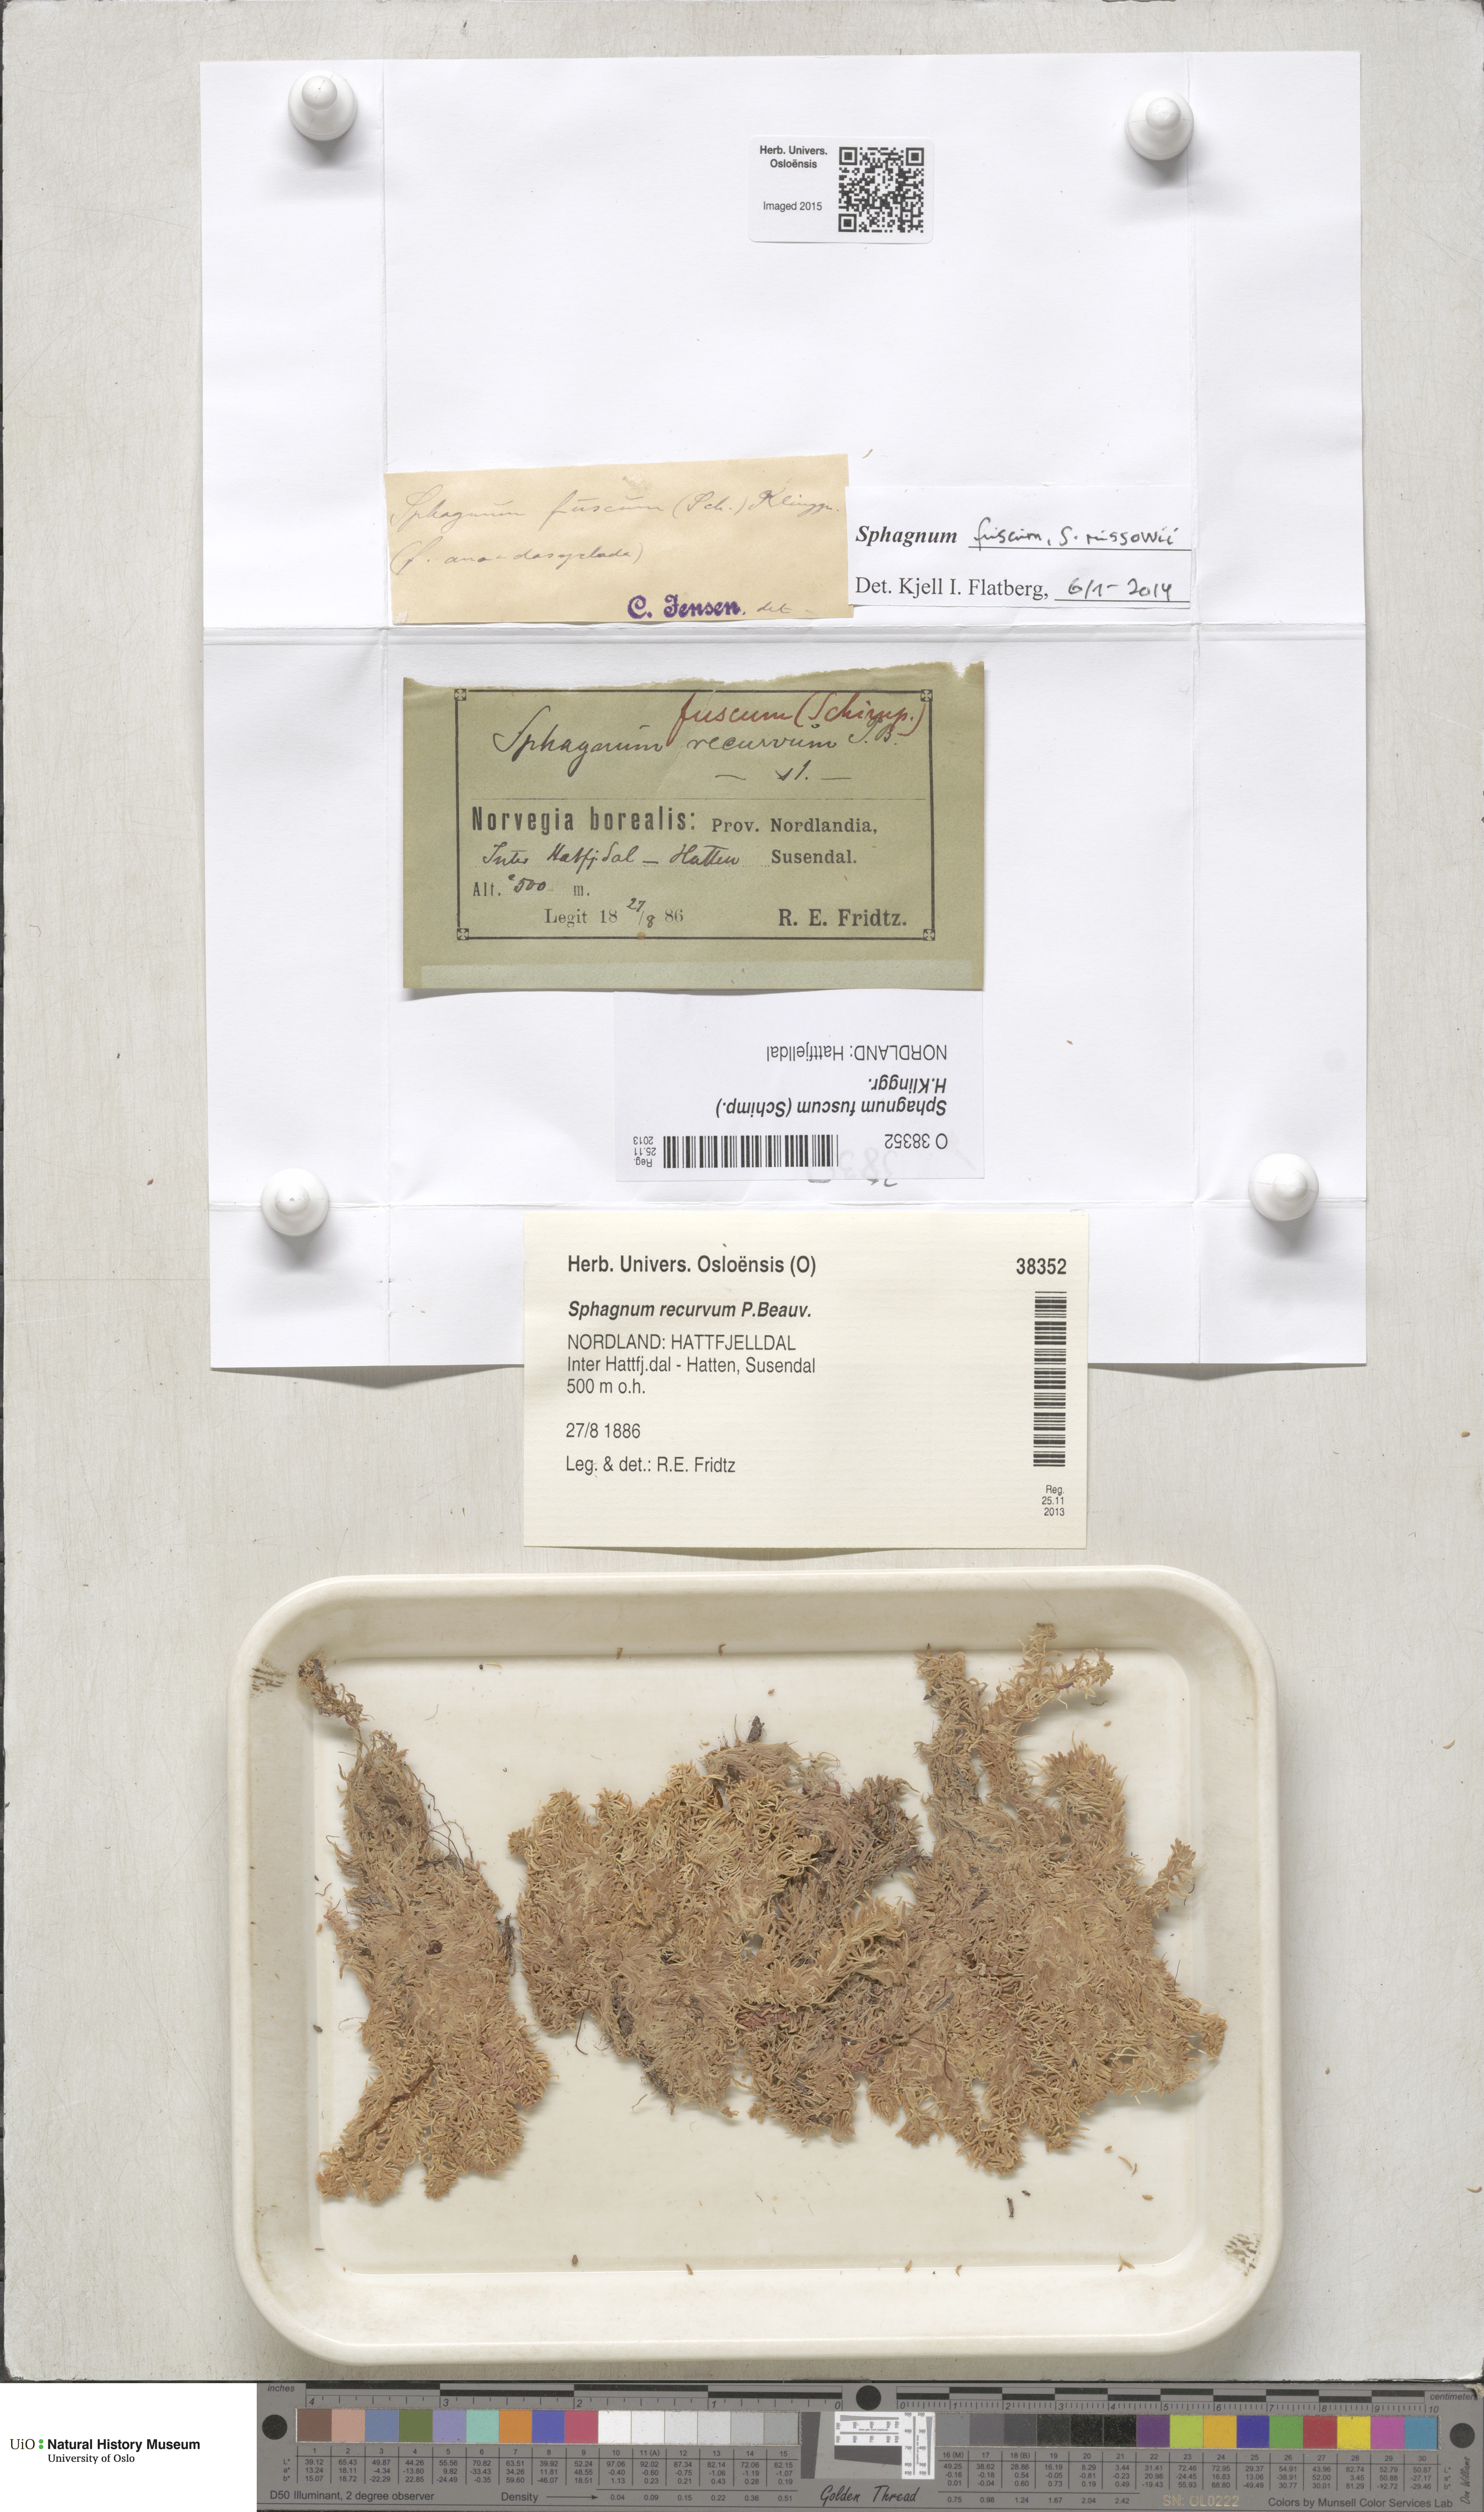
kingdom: Plantae
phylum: Bryophyta
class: Sphagnopsida
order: Sphagnales
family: Sphagnaceae
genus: Sphagnum
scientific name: Sphagnum fuscum
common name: Brown peat moss
